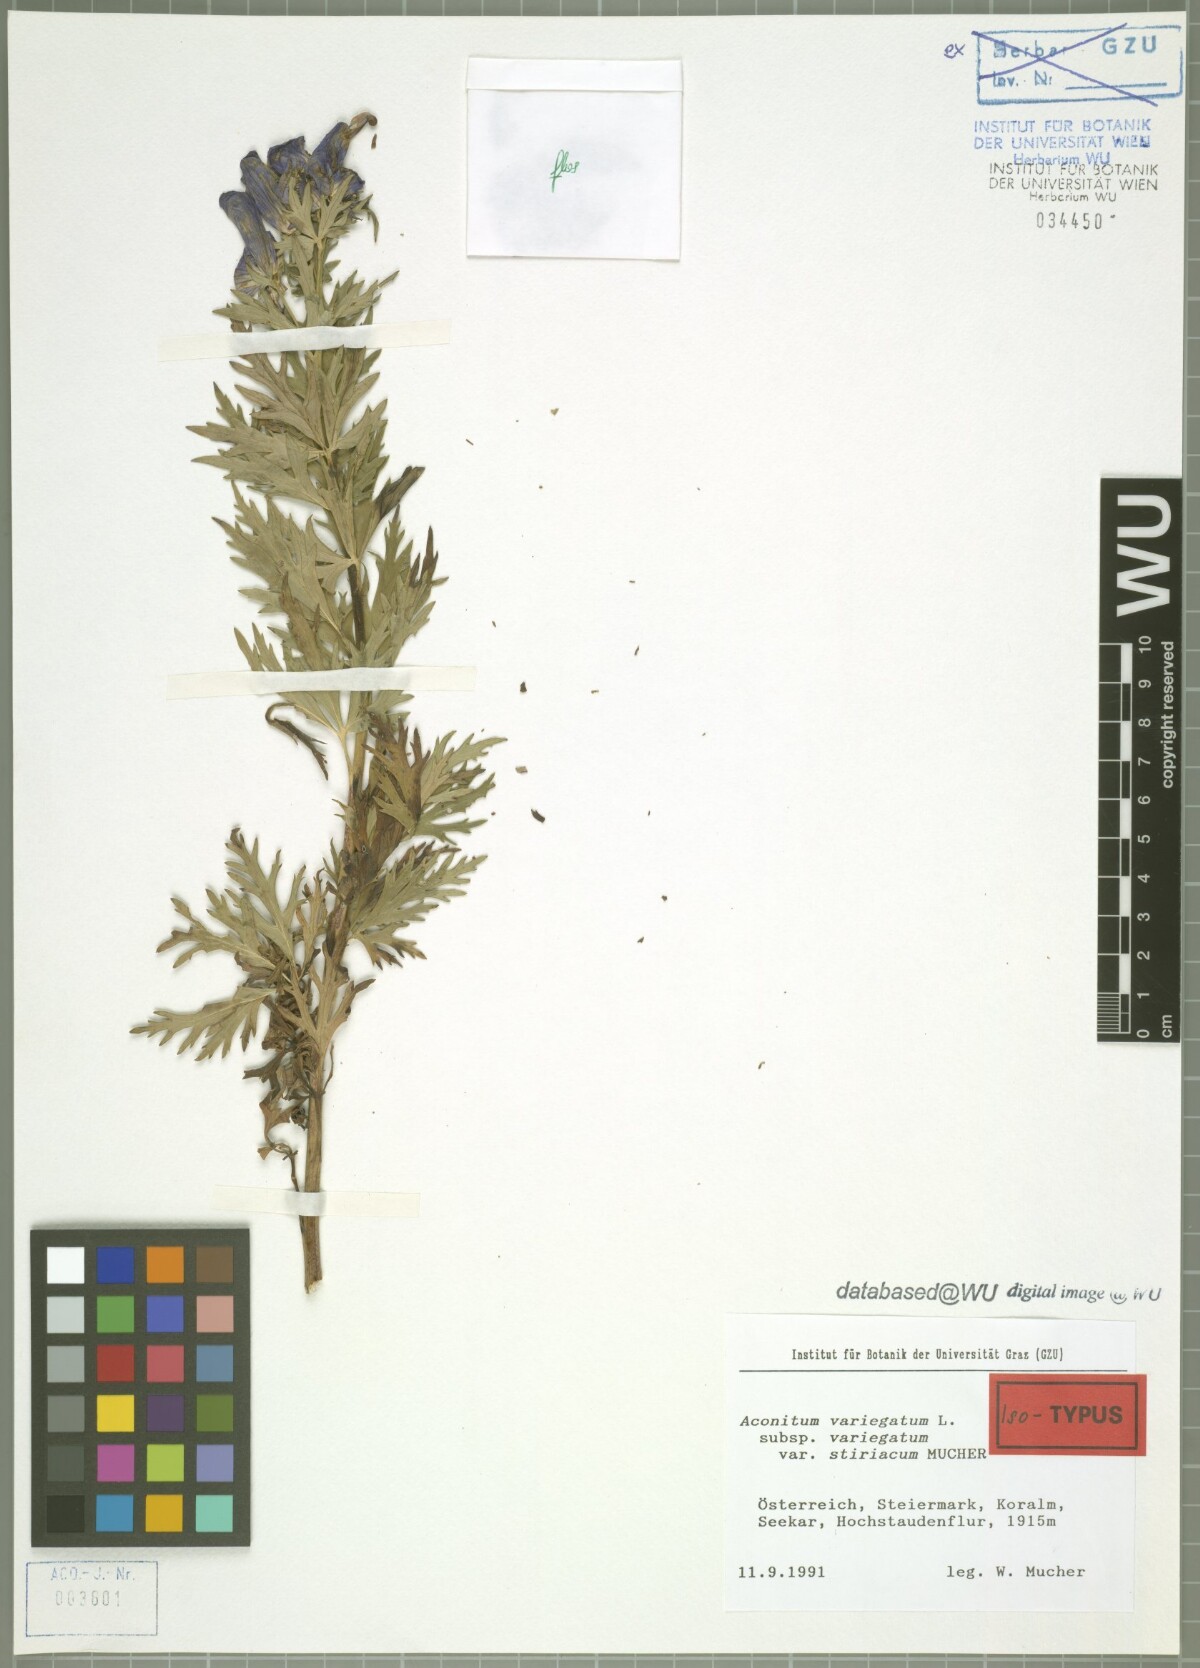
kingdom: Plantae
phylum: Tracheophyta
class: Magnoliopsida
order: Ranunculales
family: Ranunculaceae
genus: Aconitum
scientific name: Aconitum variegatum
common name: Manchurian monkshood
